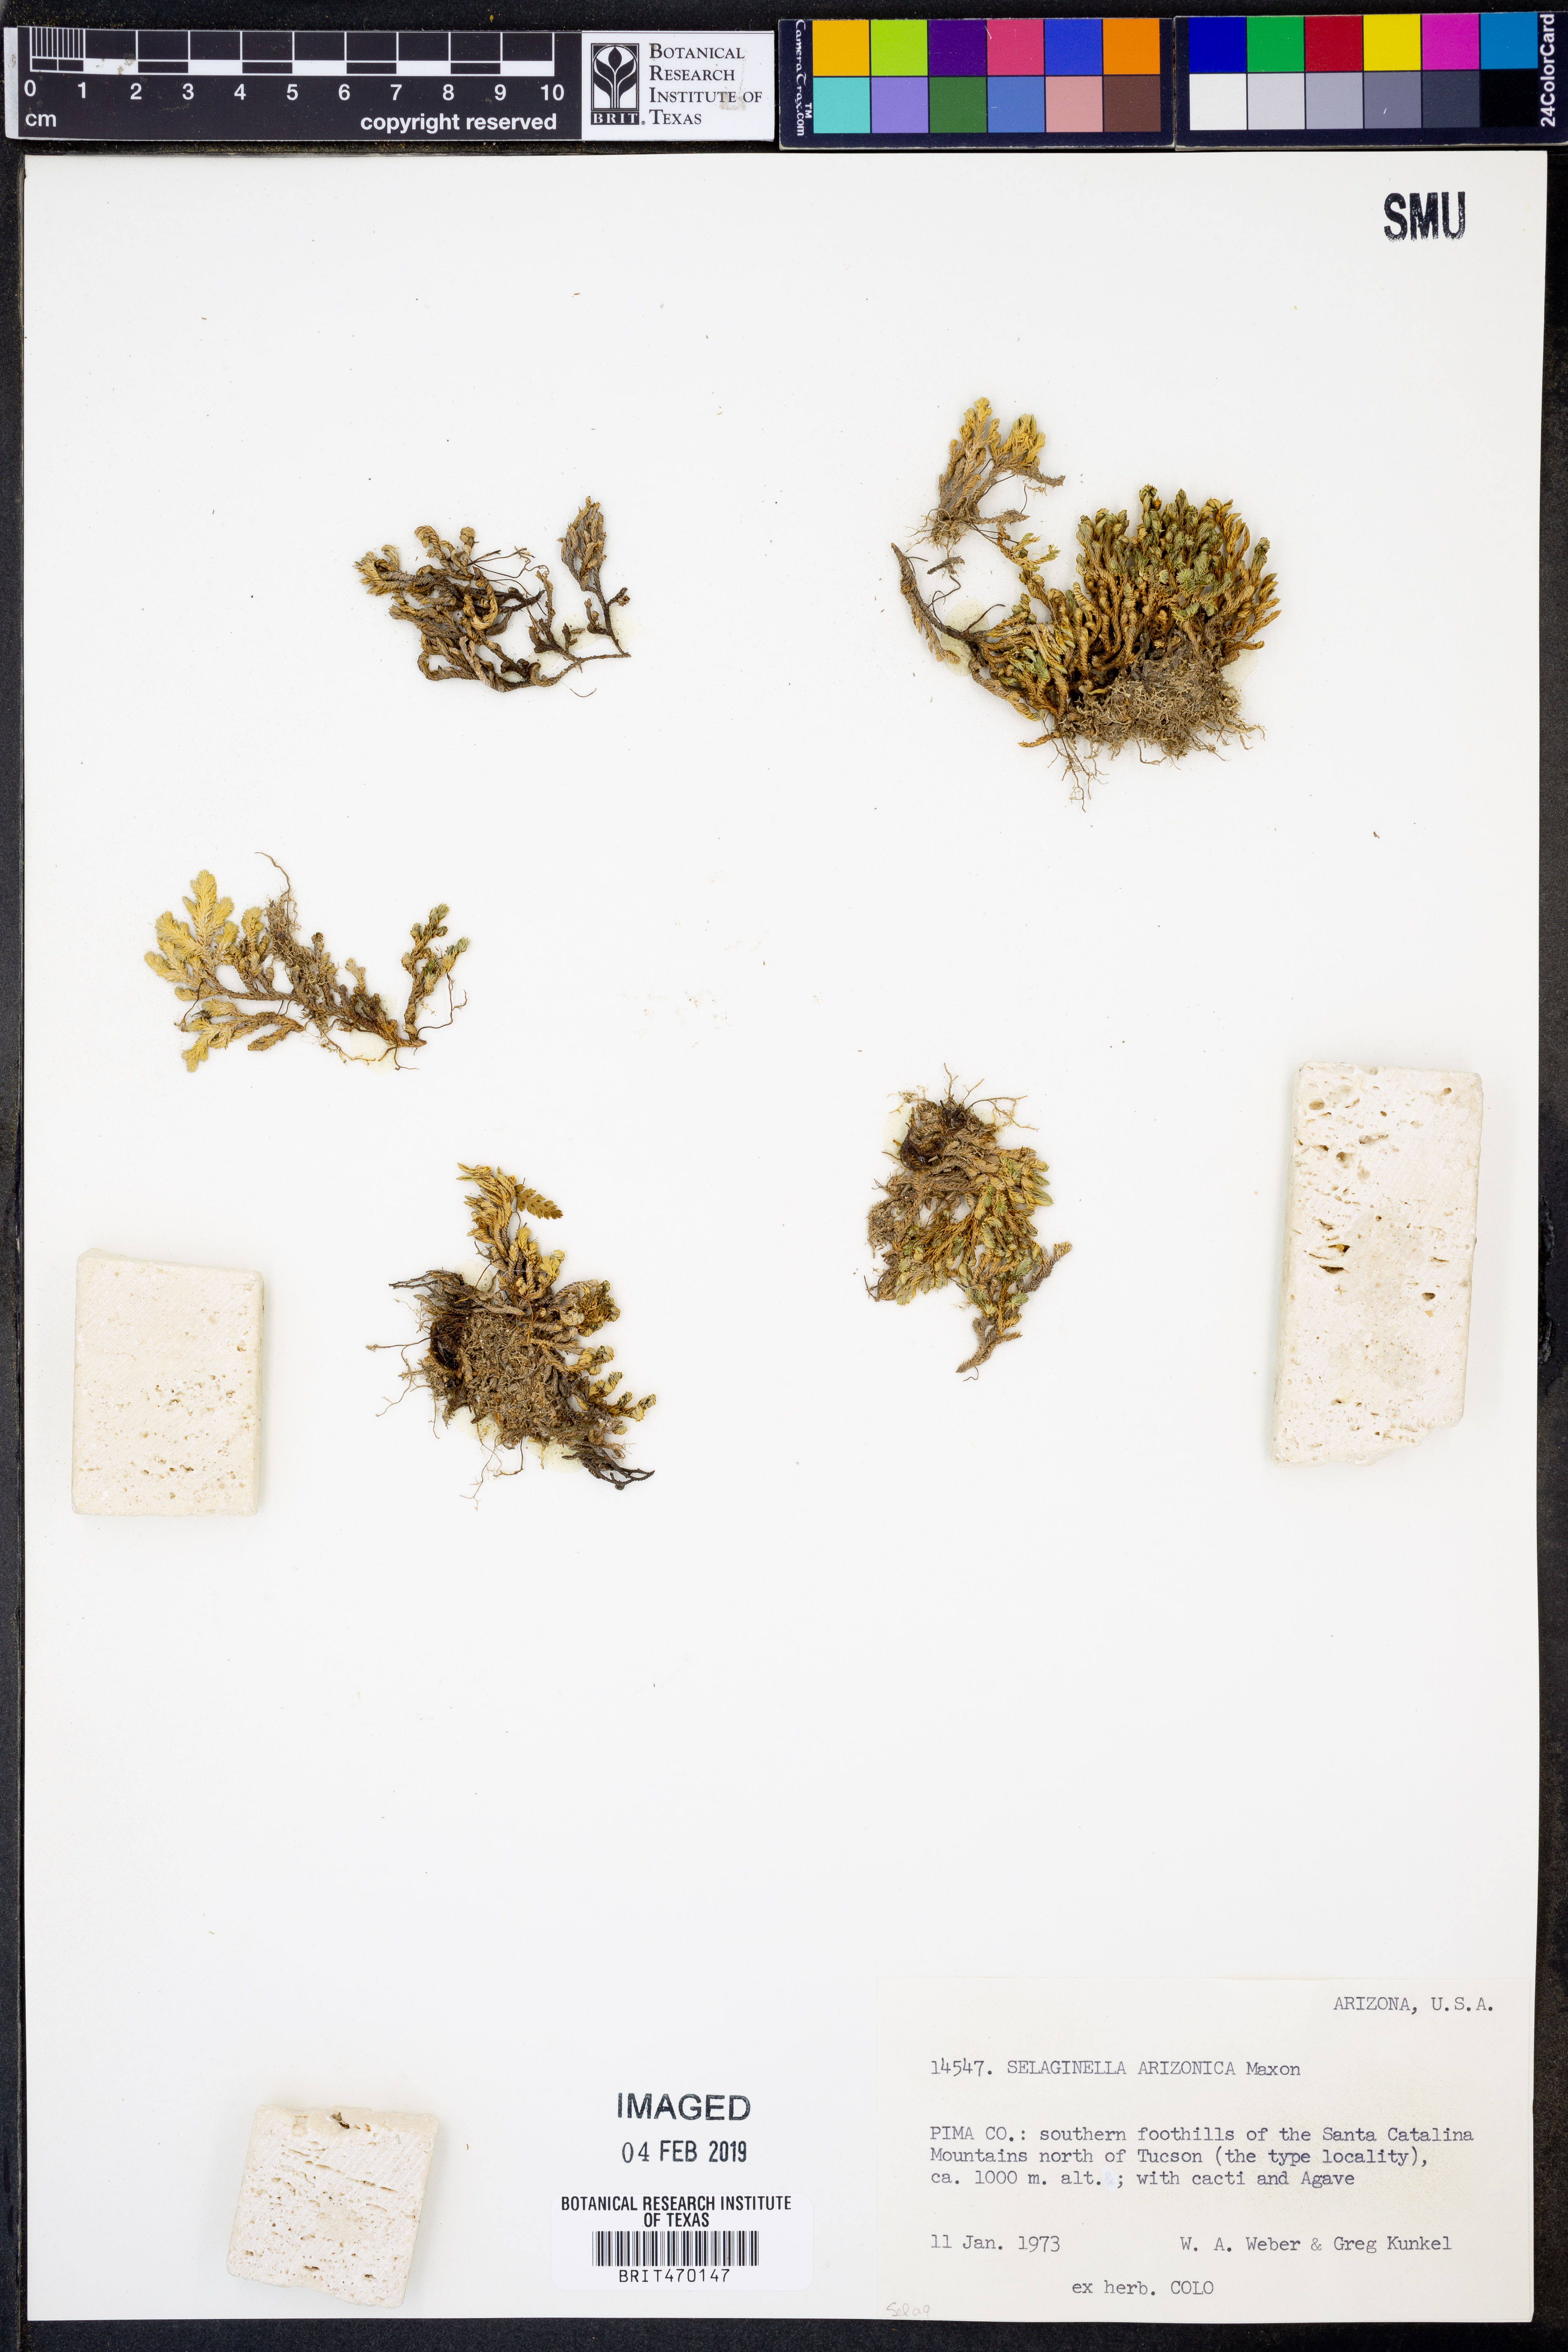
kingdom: Plantae
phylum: Tracheophyta
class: Lycopodiopsida
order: Selaginellales
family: Selaginellaceae
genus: Selaginella
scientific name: Selaginella arizonica
